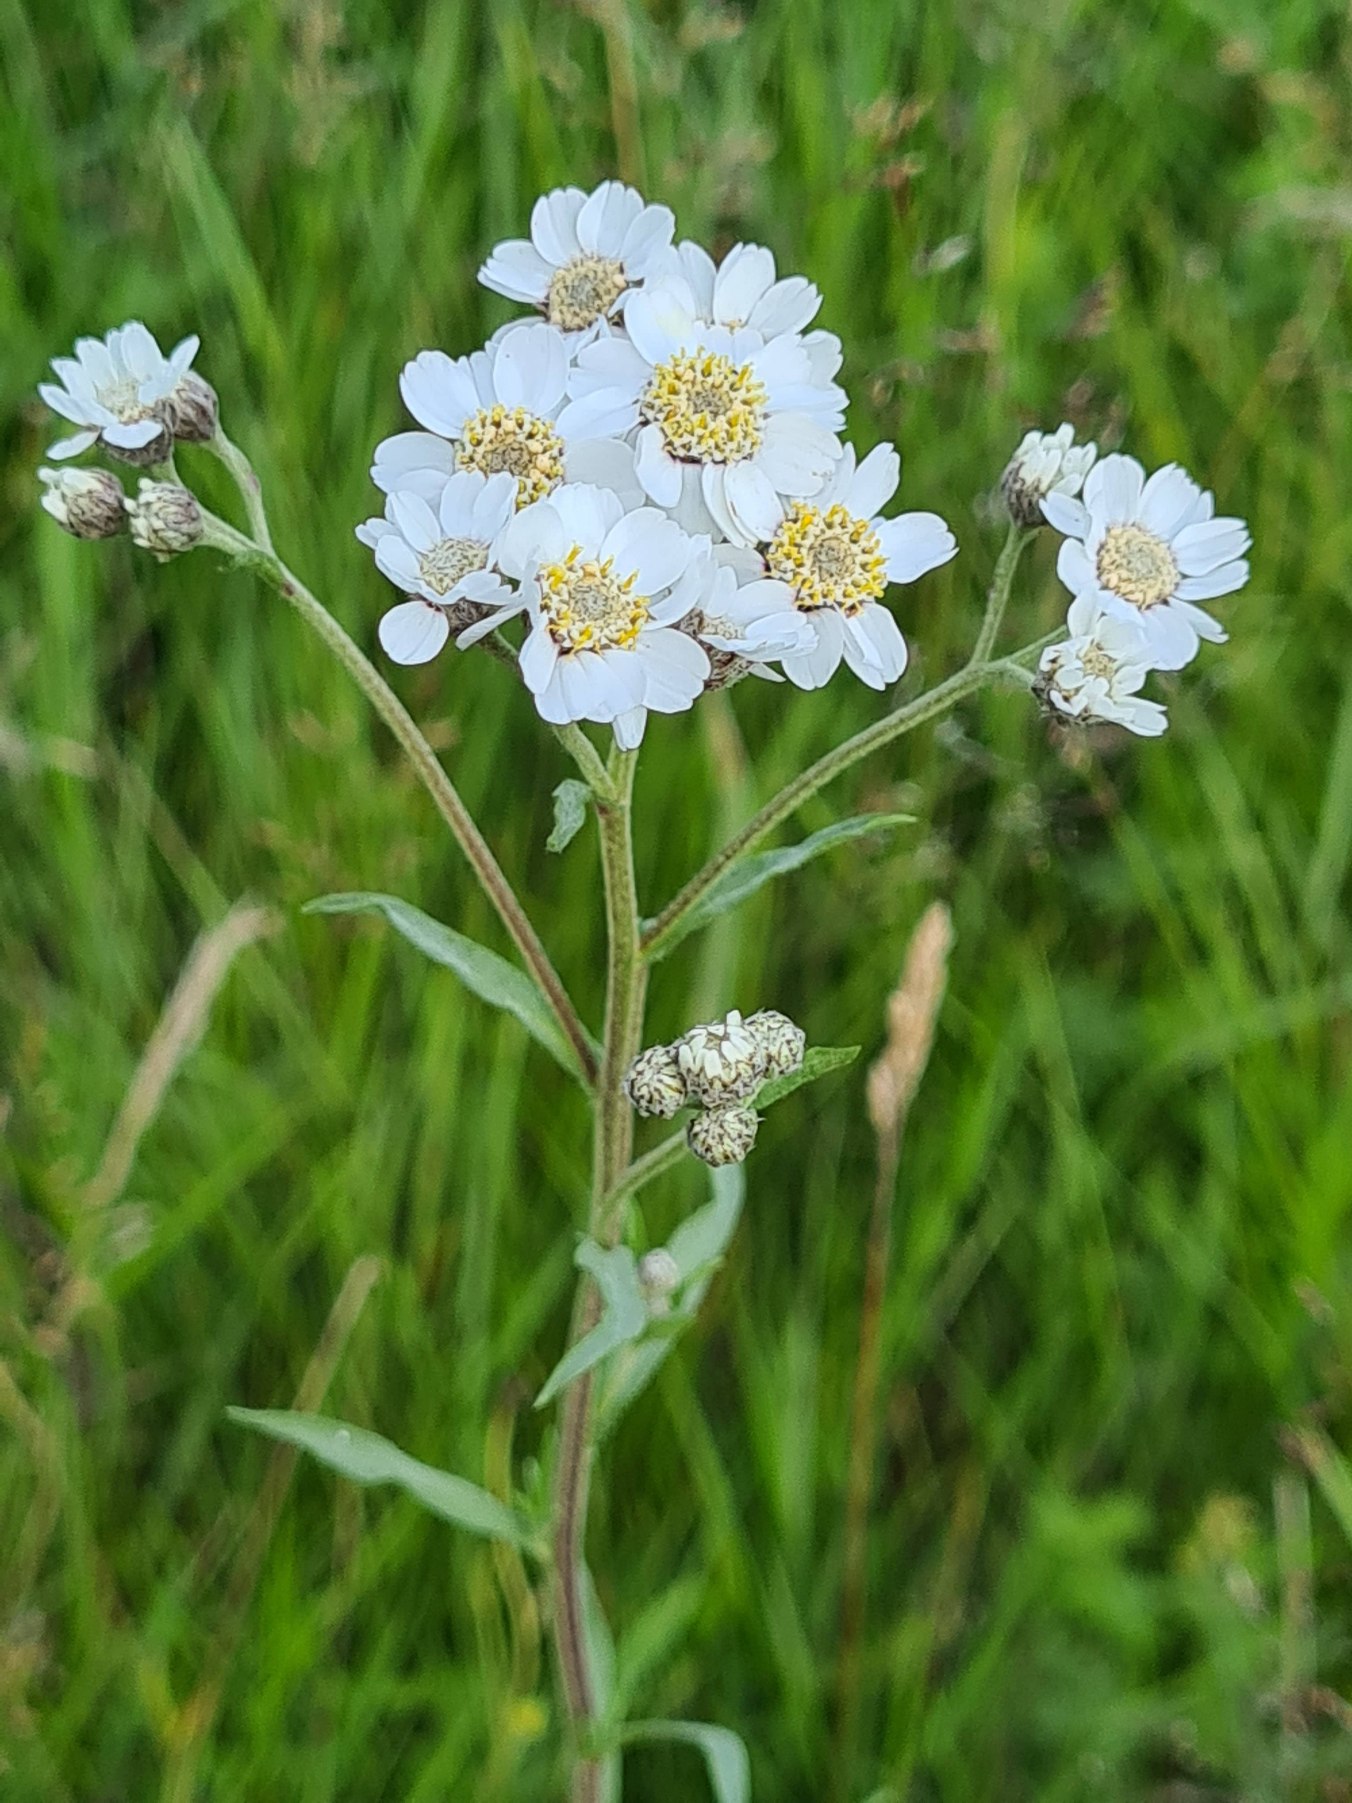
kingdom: Plantae
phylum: Tracheophyta
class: Magnoliopsida
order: Asterales
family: Asteraceae
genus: Achillea
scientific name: Achillea ptarmica
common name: Nyse-røllike
